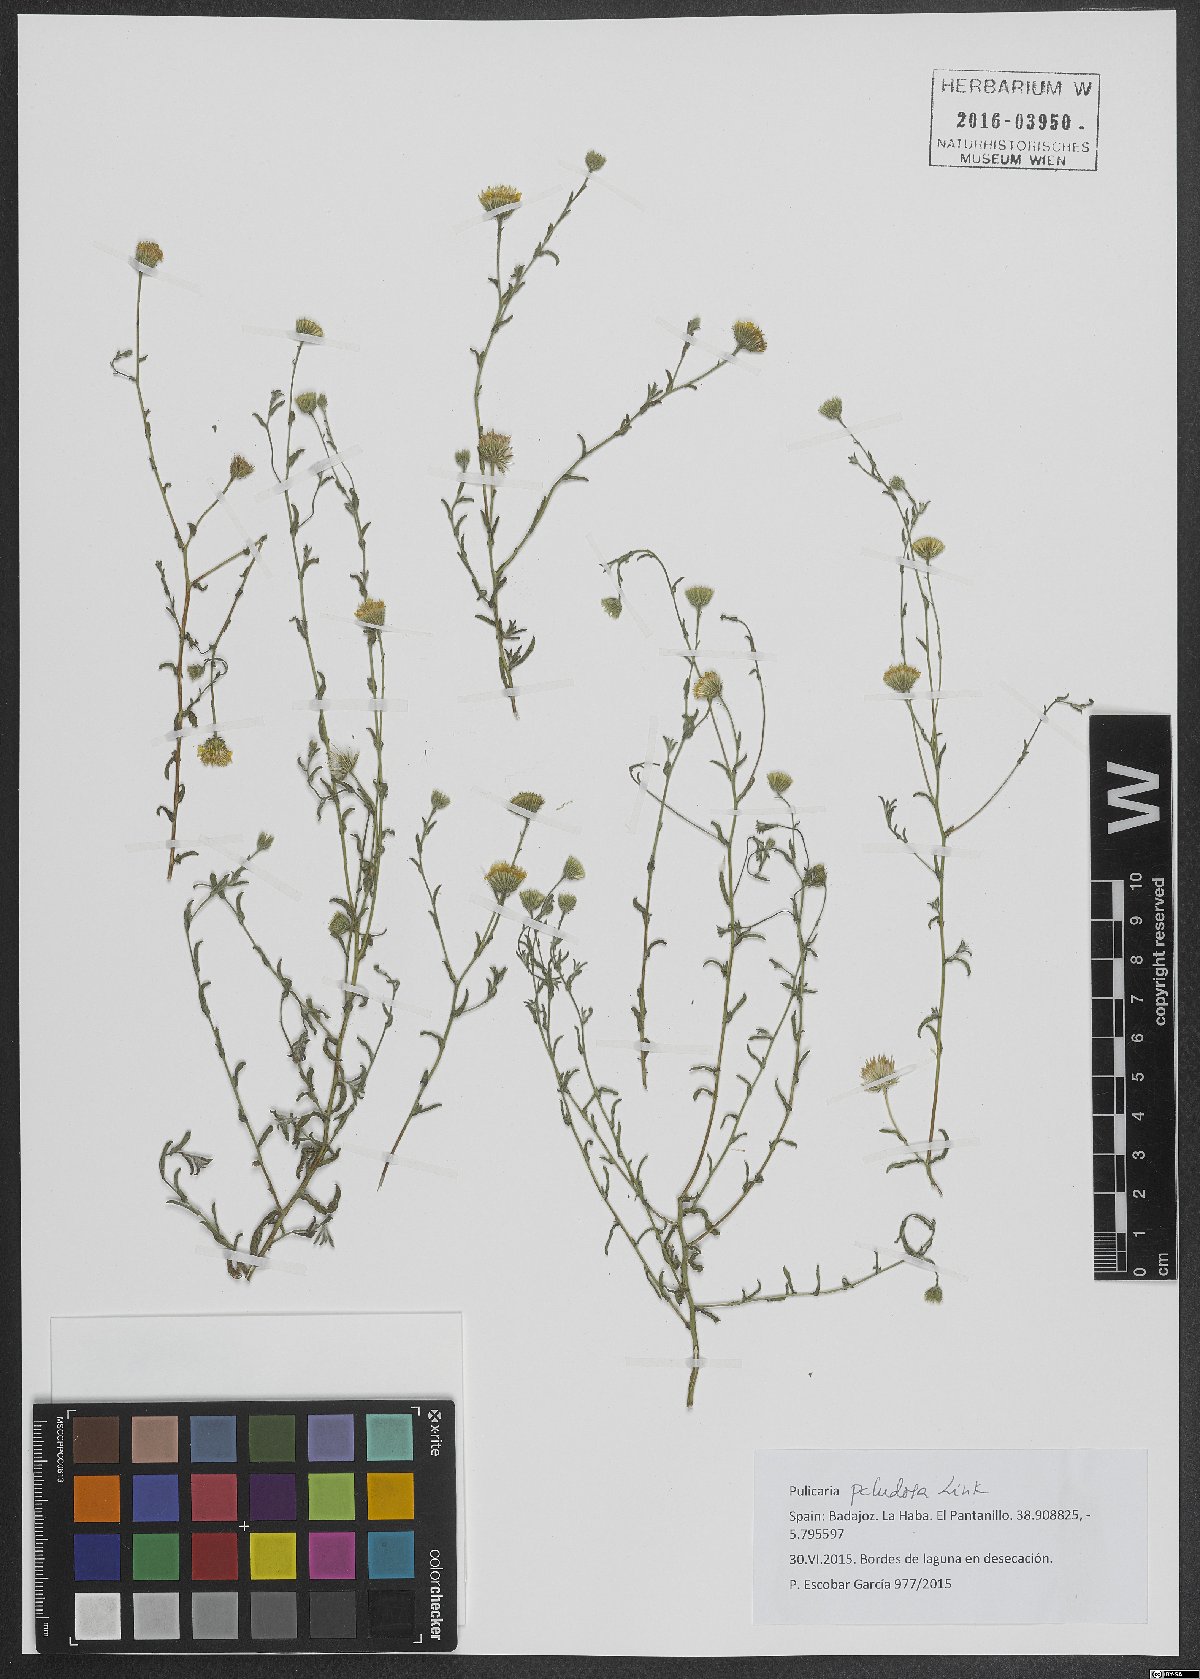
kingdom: Plantae
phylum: Tracheophyta
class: Magnoliopsida
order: Asterales
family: Asteraceae
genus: Pulicaria
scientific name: Pulicaria arabica
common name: Ladies' false fleabane
